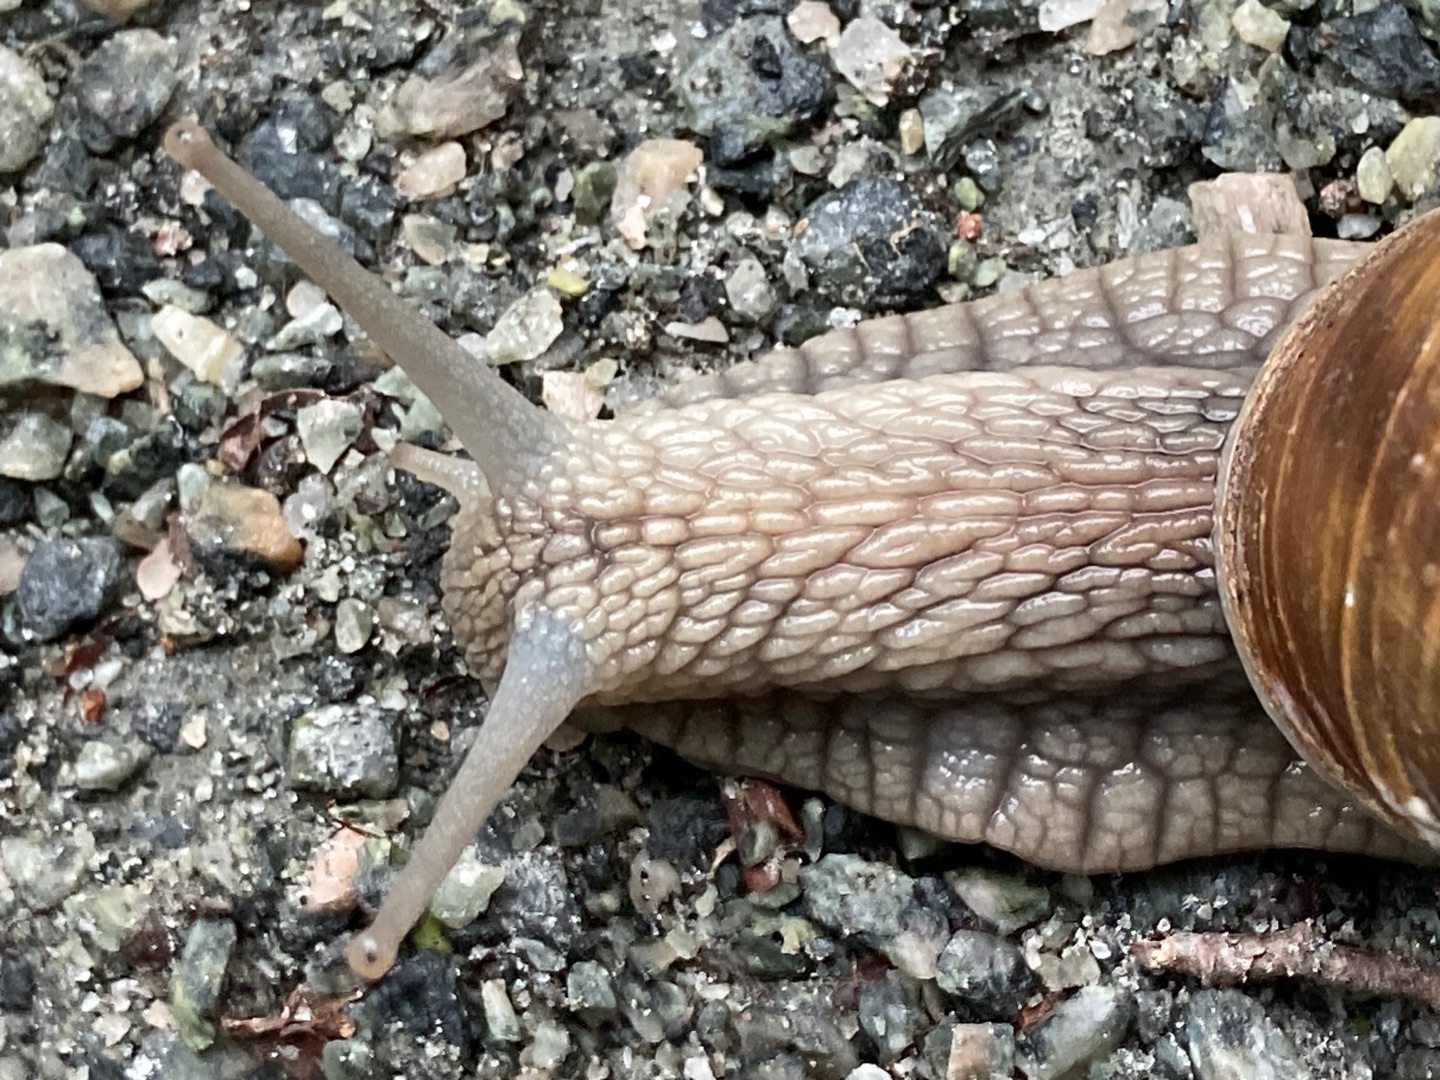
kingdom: Animalia
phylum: Mollusca
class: Gastropoda
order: Stylommatophora
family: Helicidae
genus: Helix
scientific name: Helix pomatia
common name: Vinbjergsnegl
